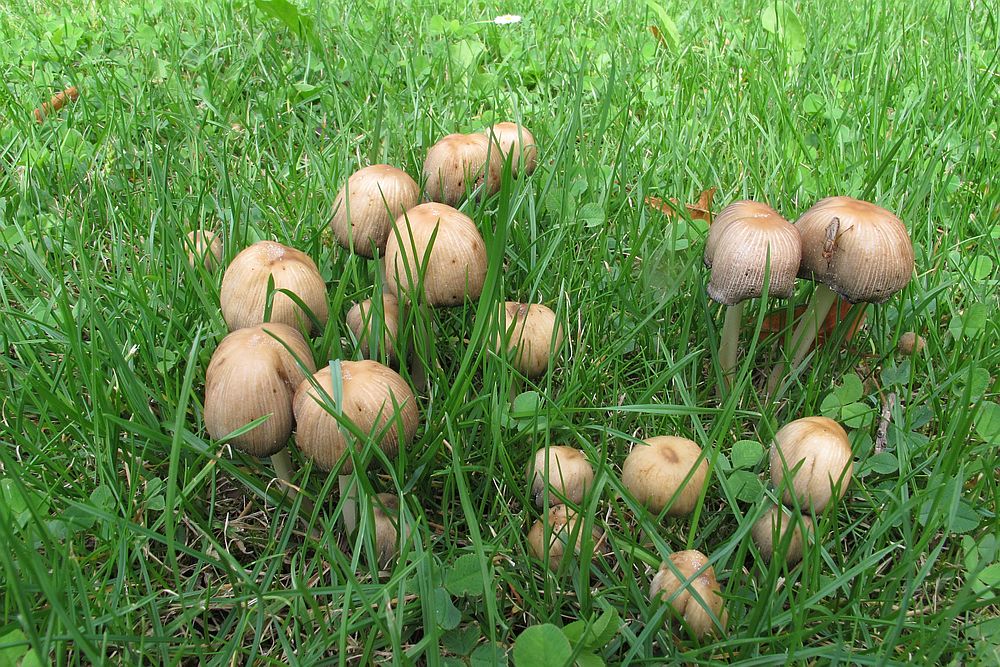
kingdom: Fungi
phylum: Basidiomycota
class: Agaricomycetes
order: Agaricales
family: Psathyrellaceae
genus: Coprinellus
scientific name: Coprinellus micaceus
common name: glimmer-blækhat
